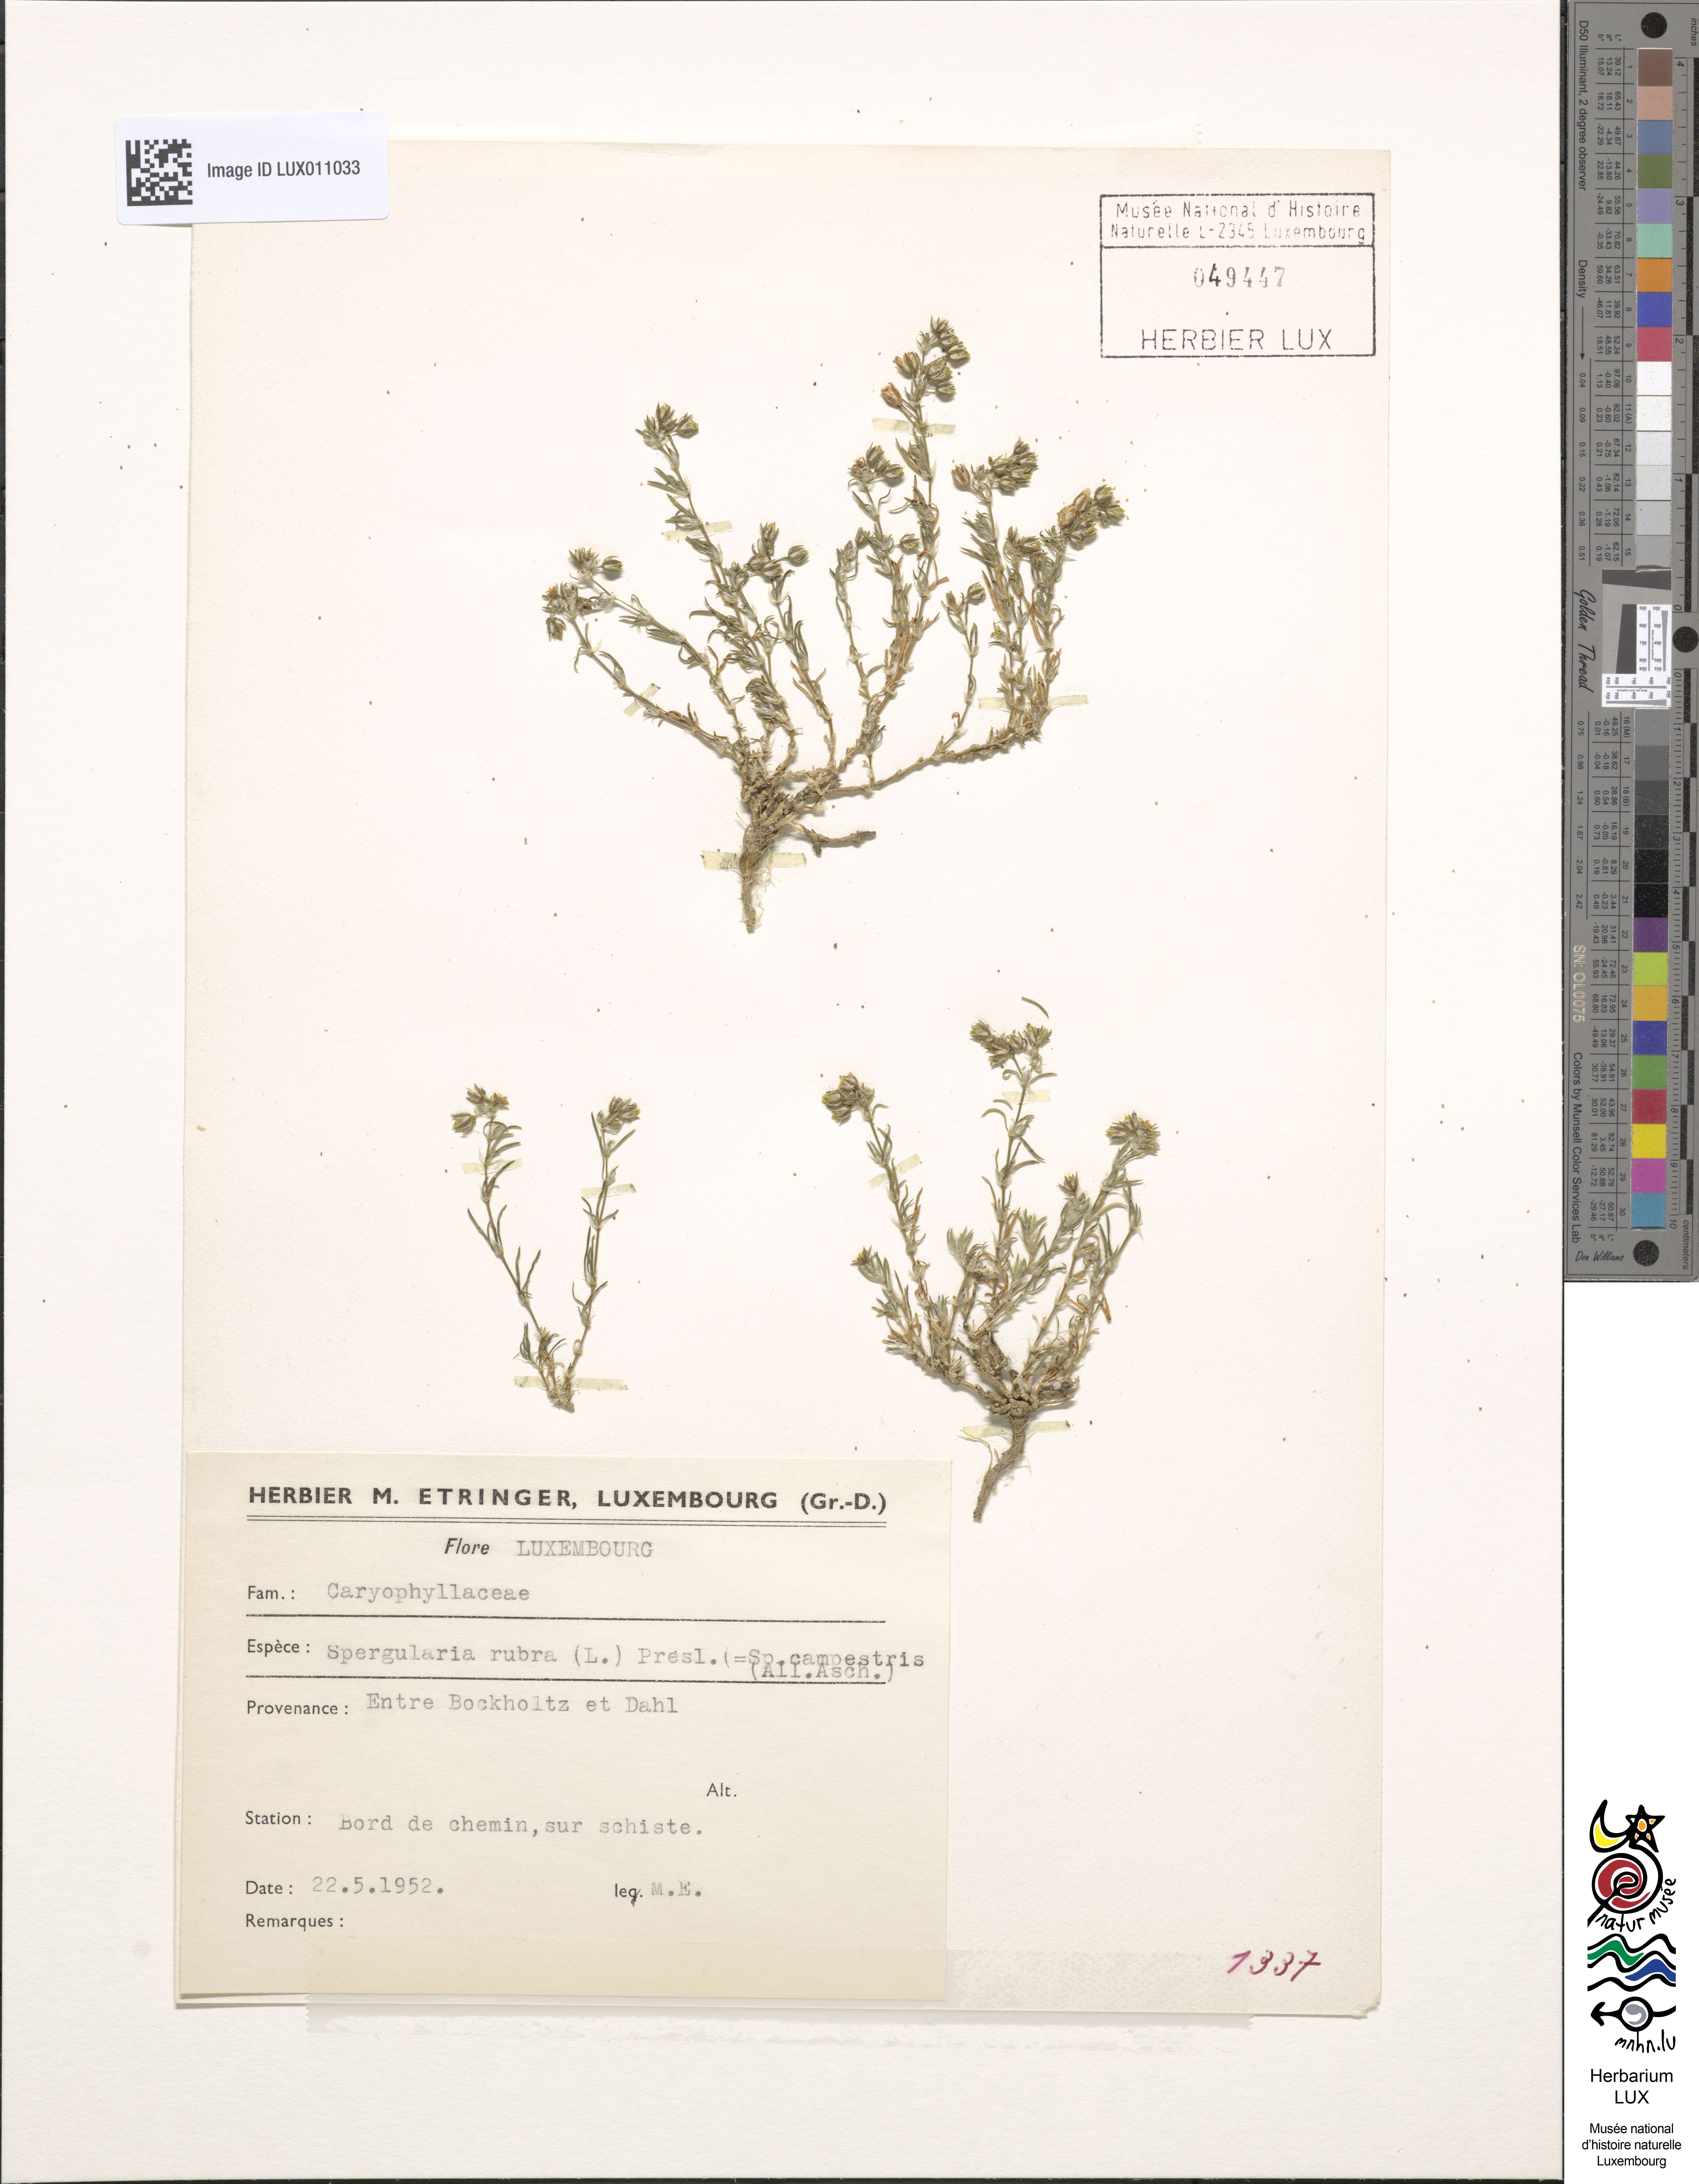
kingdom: Plantae
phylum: Tracheophyta
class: Magnoliopsida
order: Caryophyllales
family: Caryophyllaceae
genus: Spergularia
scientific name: Spergularia rubra
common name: Red sand-spurrey
